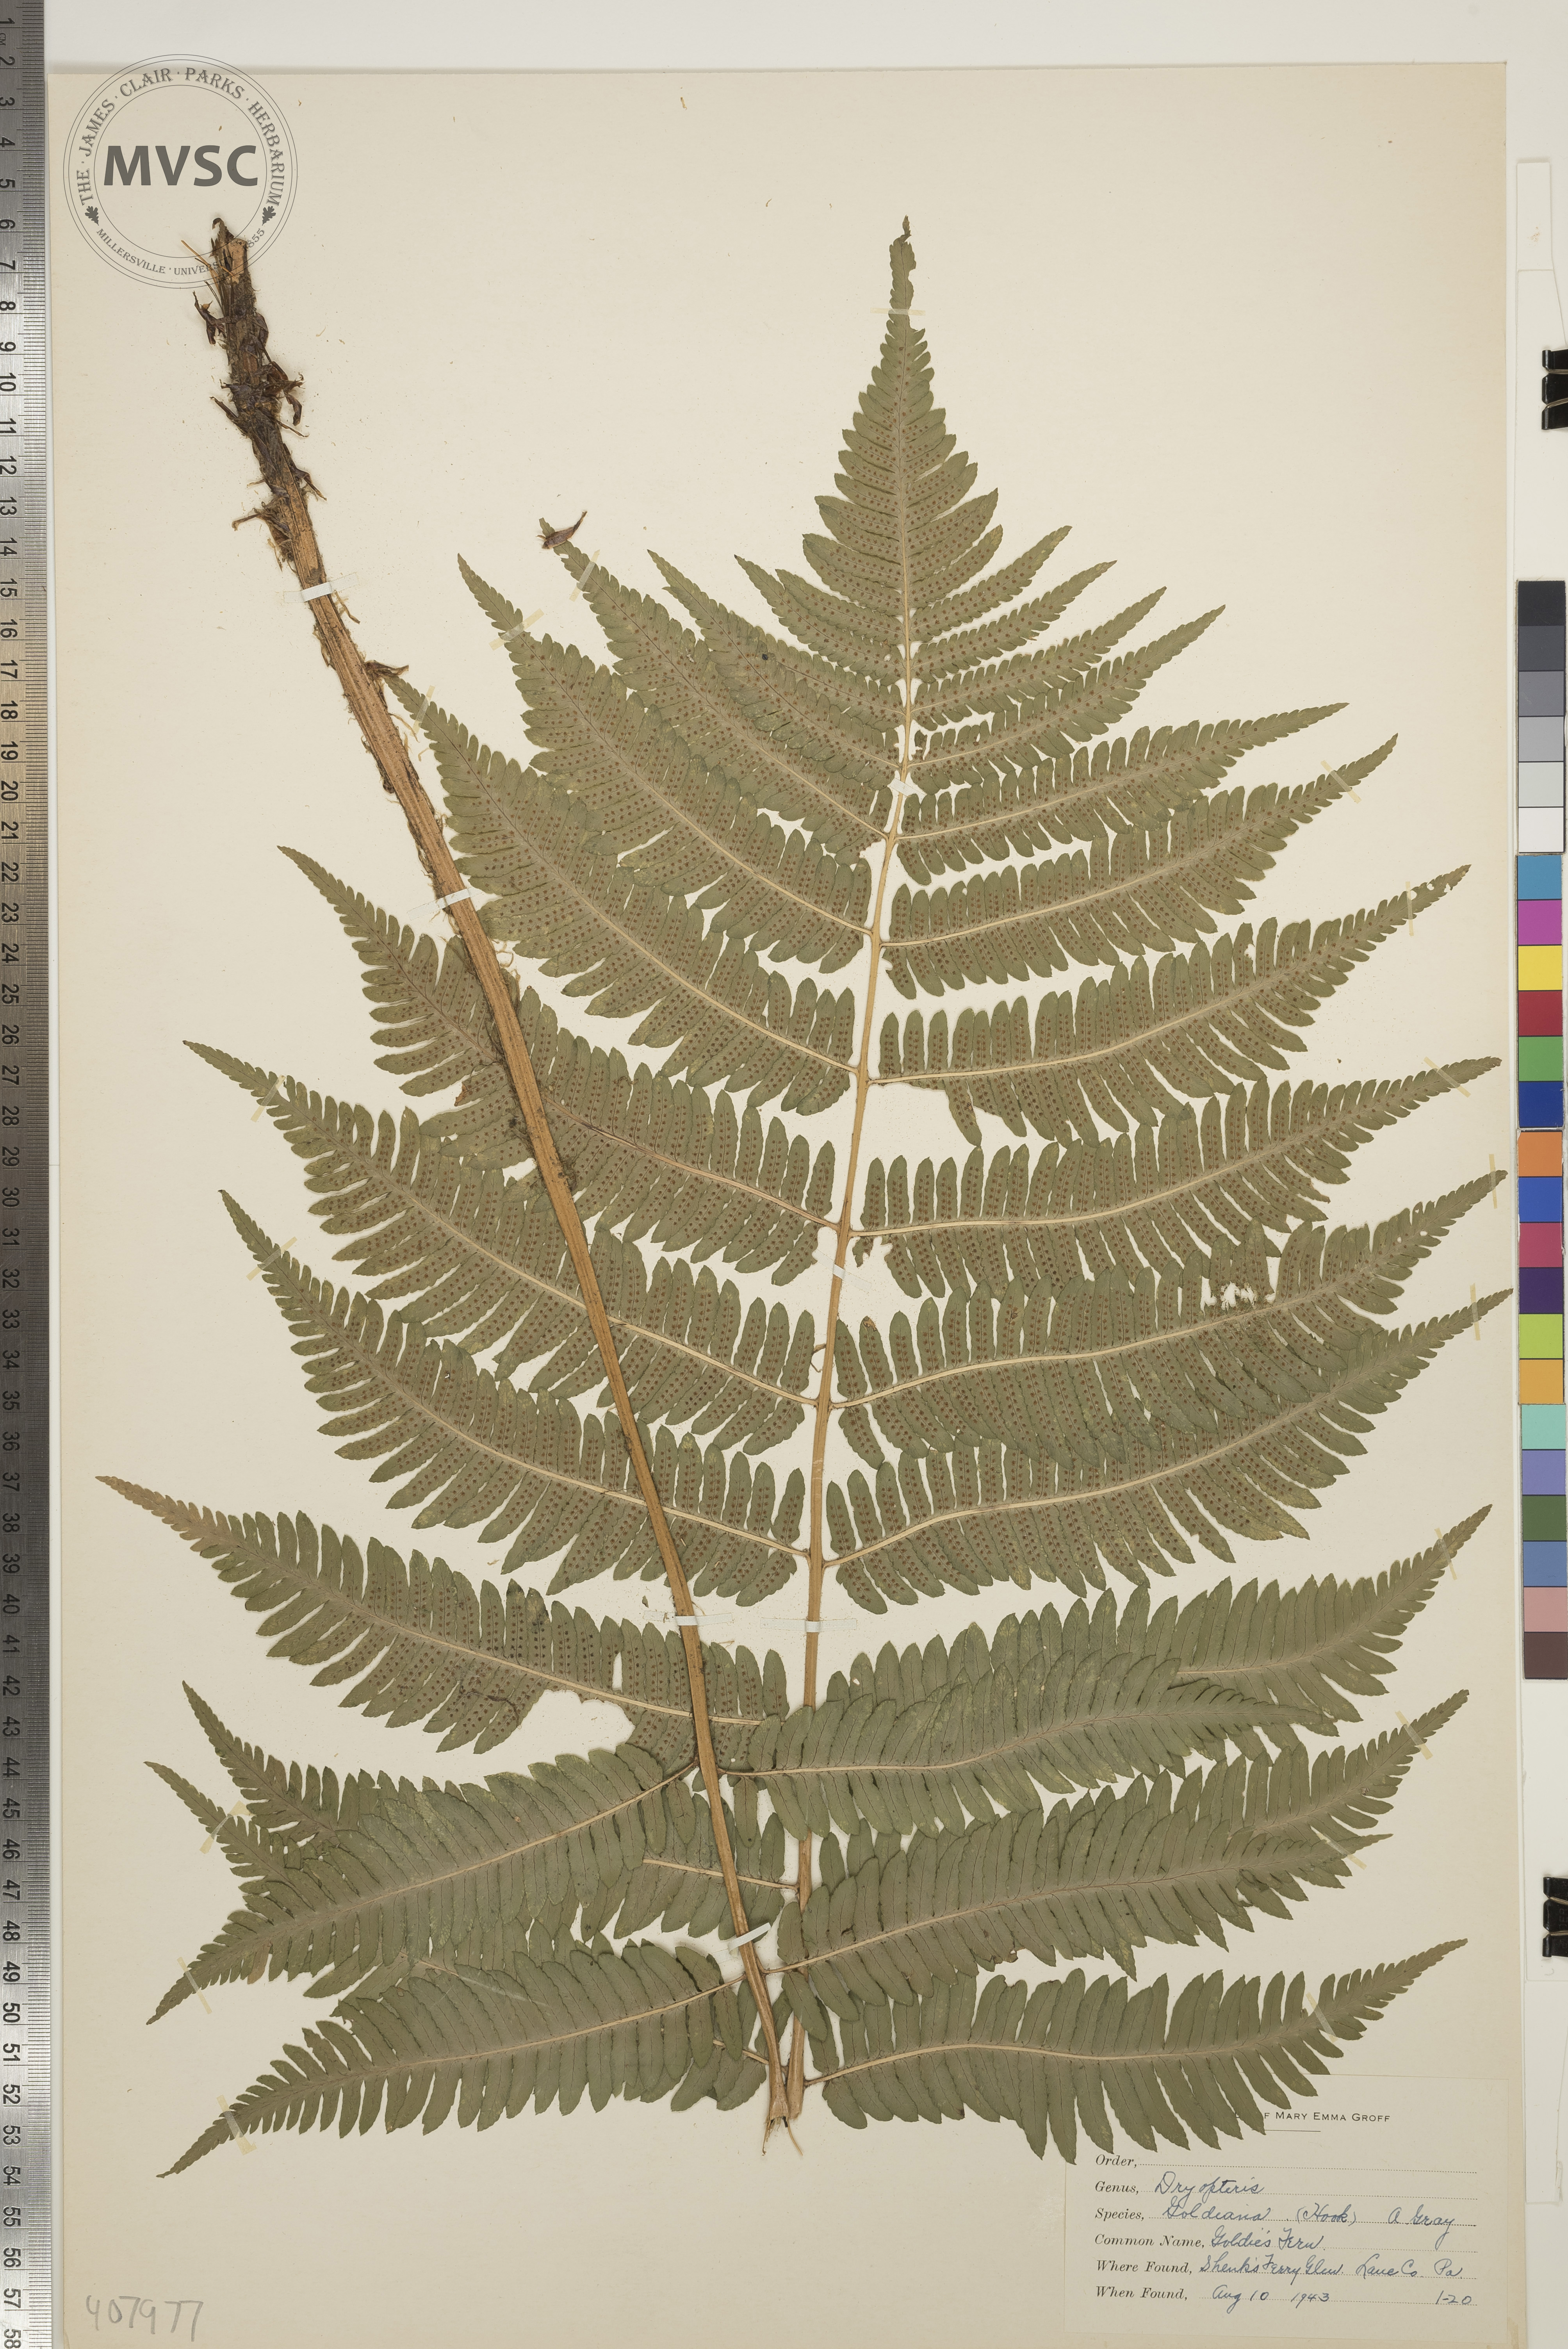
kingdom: Plantae
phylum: Tracheophyta
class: Polypodiopsida
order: Polypodiales
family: Dryopteridaceae
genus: Dryopteris
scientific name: Dryopteris goeldiana
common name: Goldie's Fern
